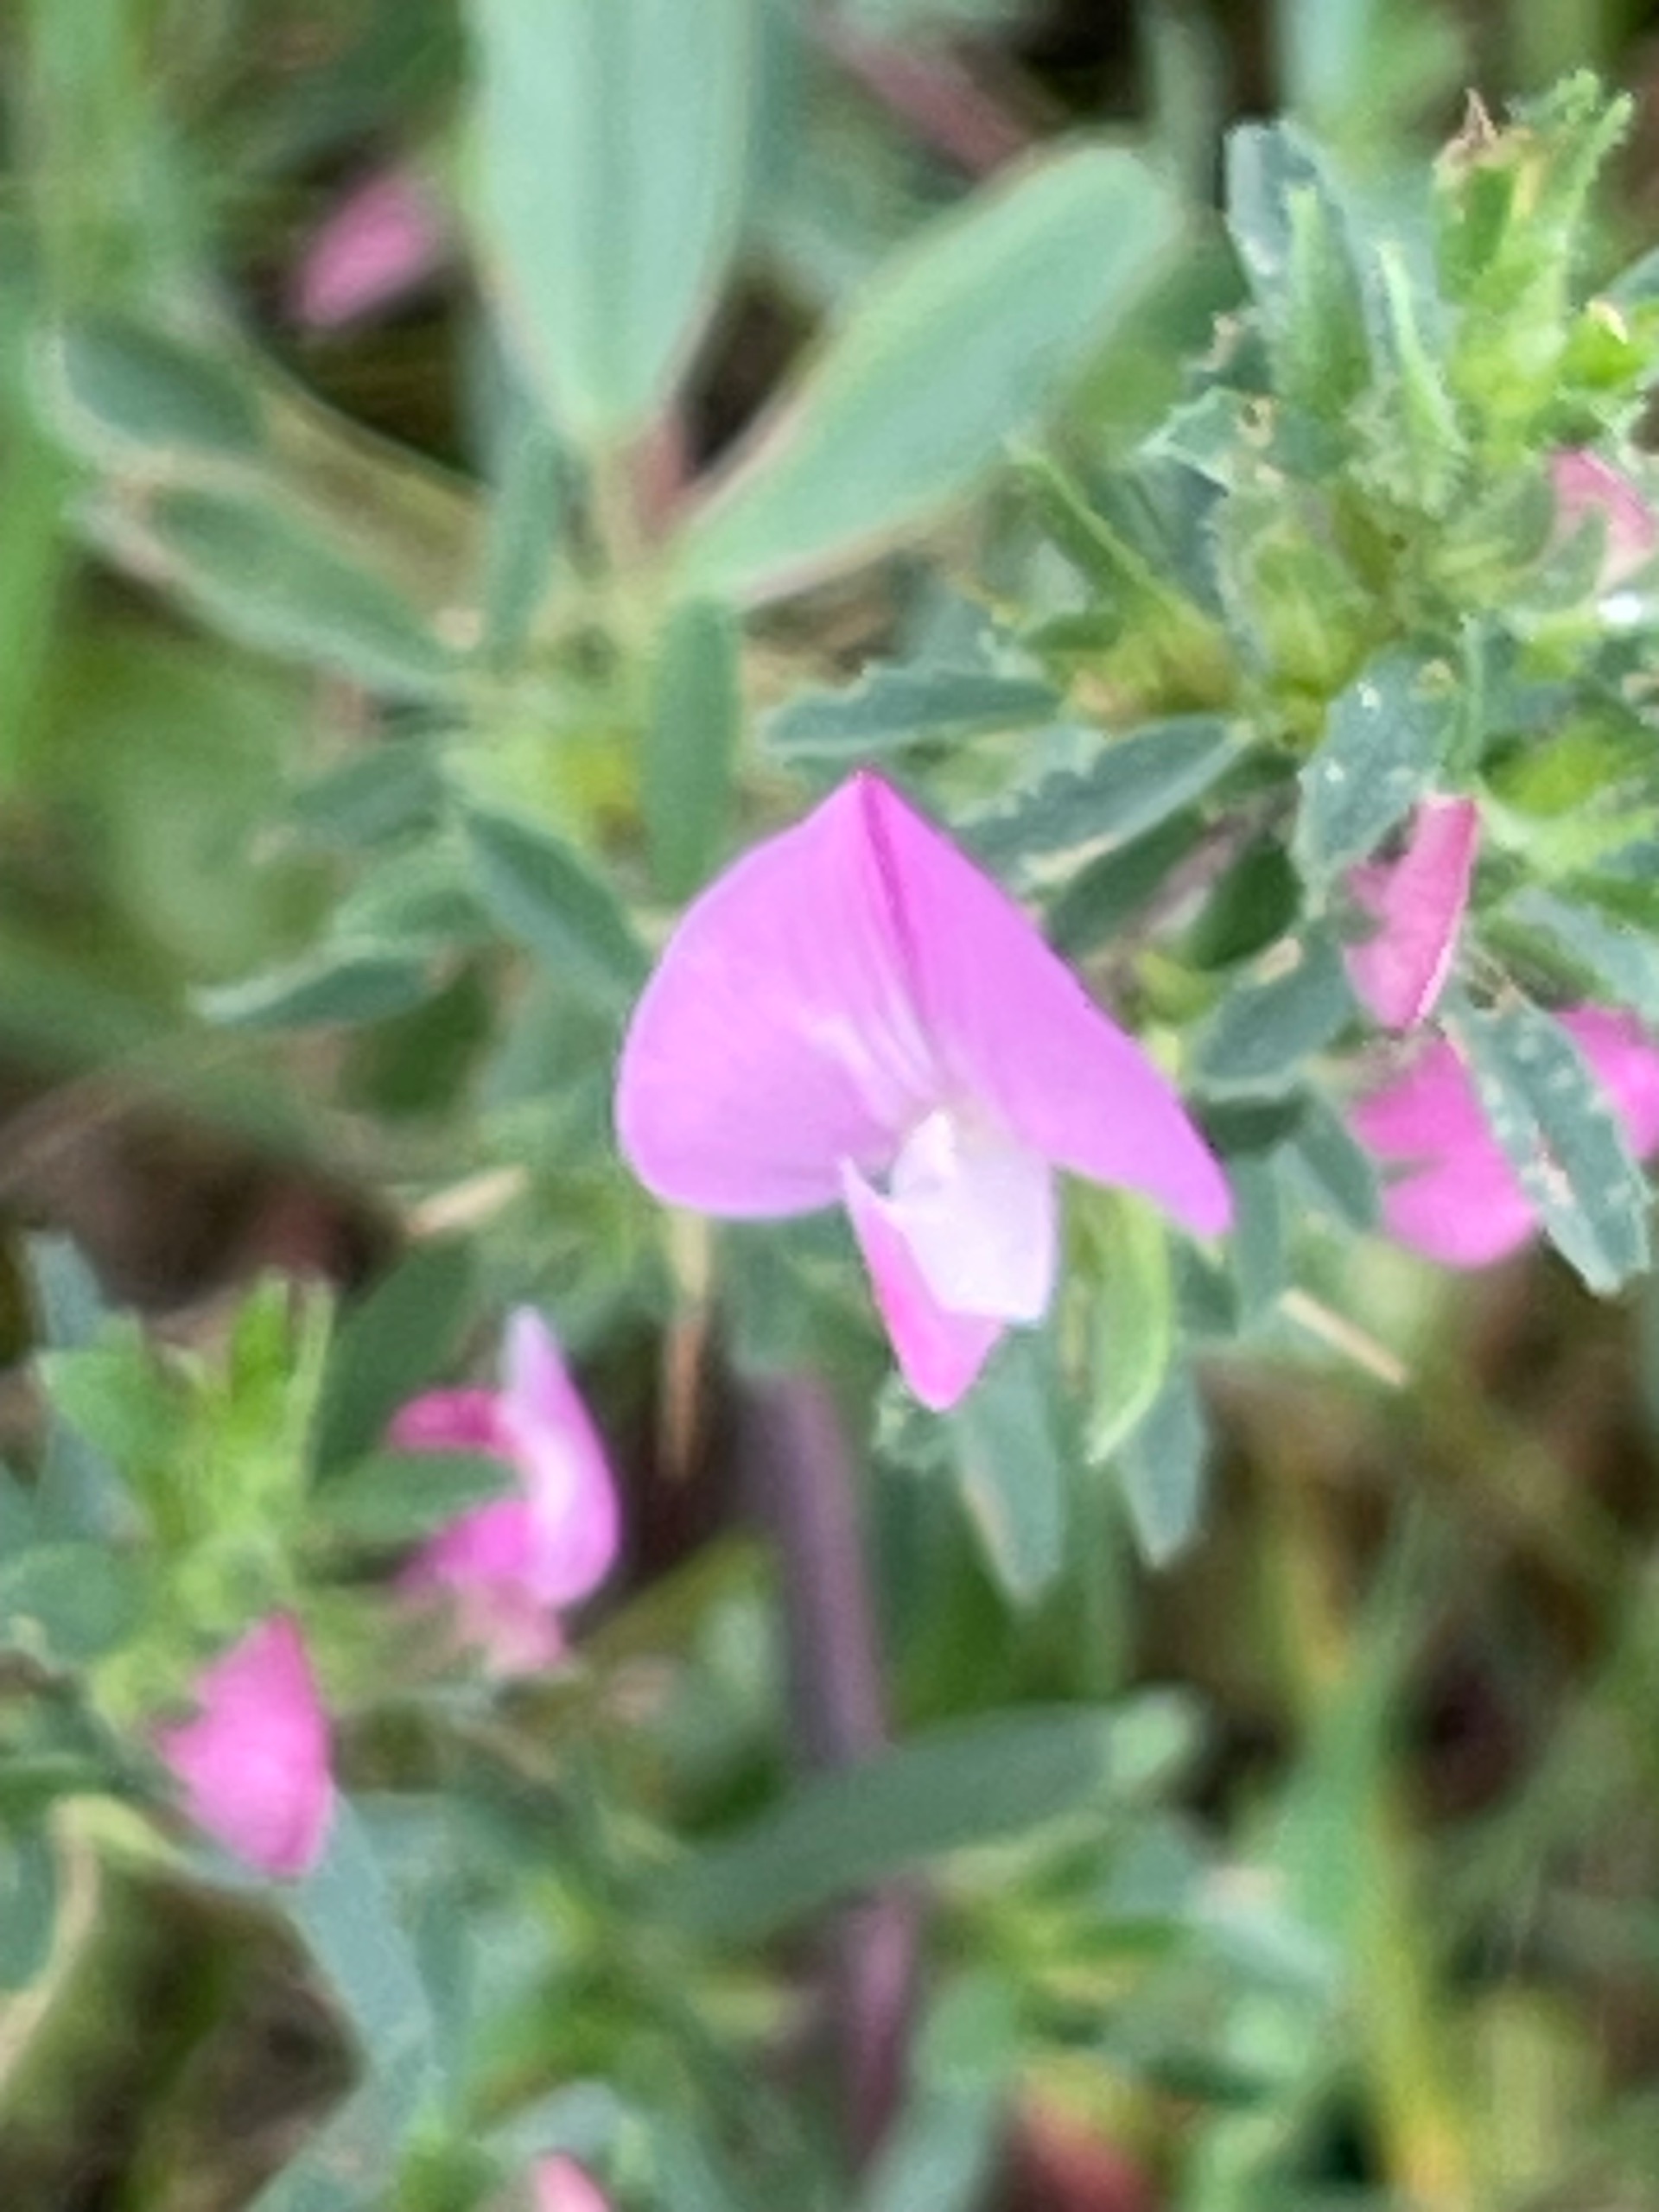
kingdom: Plantae
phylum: Tracheophyta
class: Magnoliopsida
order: Fabales
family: Fabaceae
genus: Ononis
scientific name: Ononis spinosa
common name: Strand-krageklo
